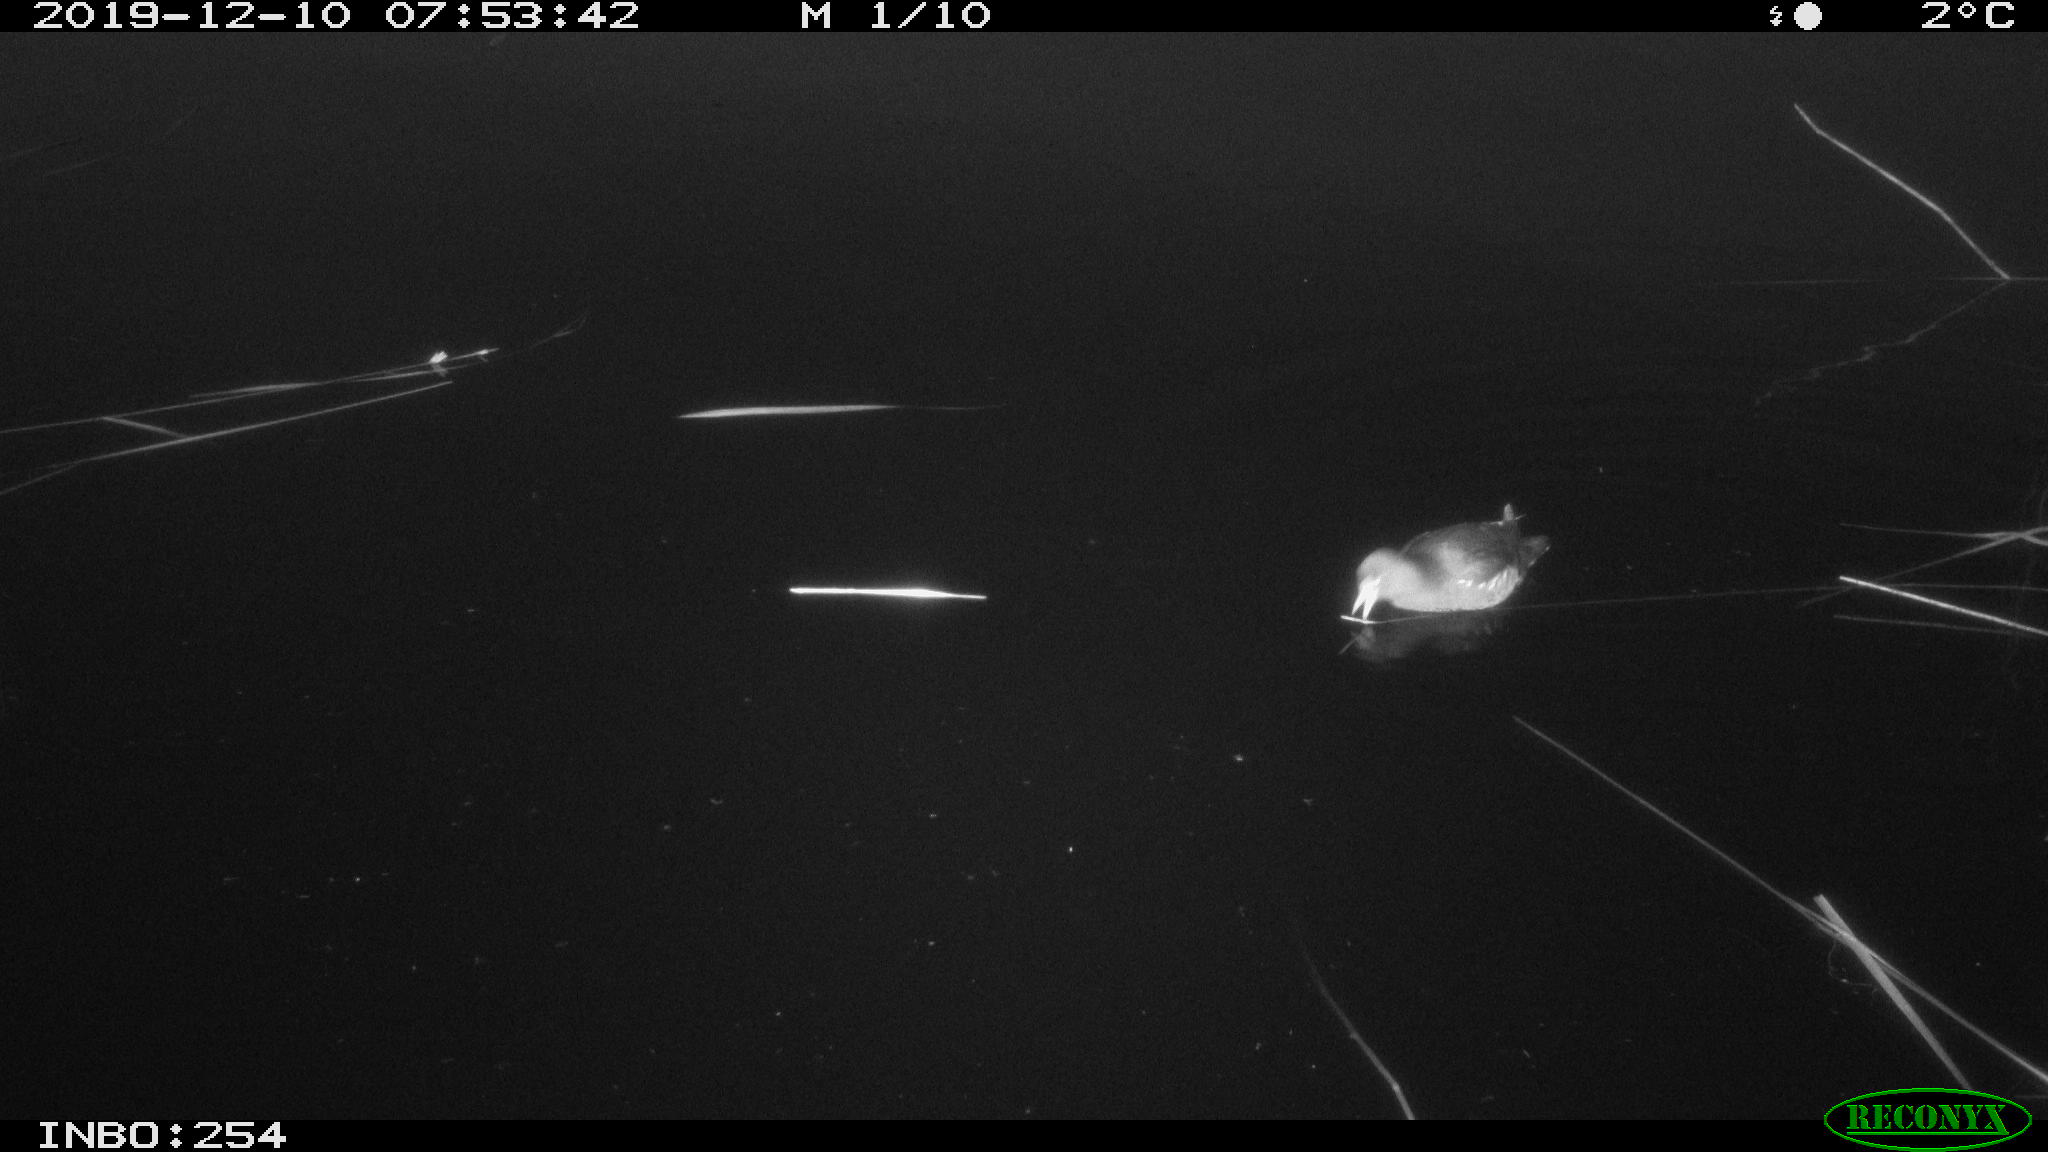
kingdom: Animalia
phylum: Chordata
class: Aves
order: Gruiformes
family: Rallidae
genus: Gallinula
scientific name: Gallinula chloropus
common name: Common moorhen
